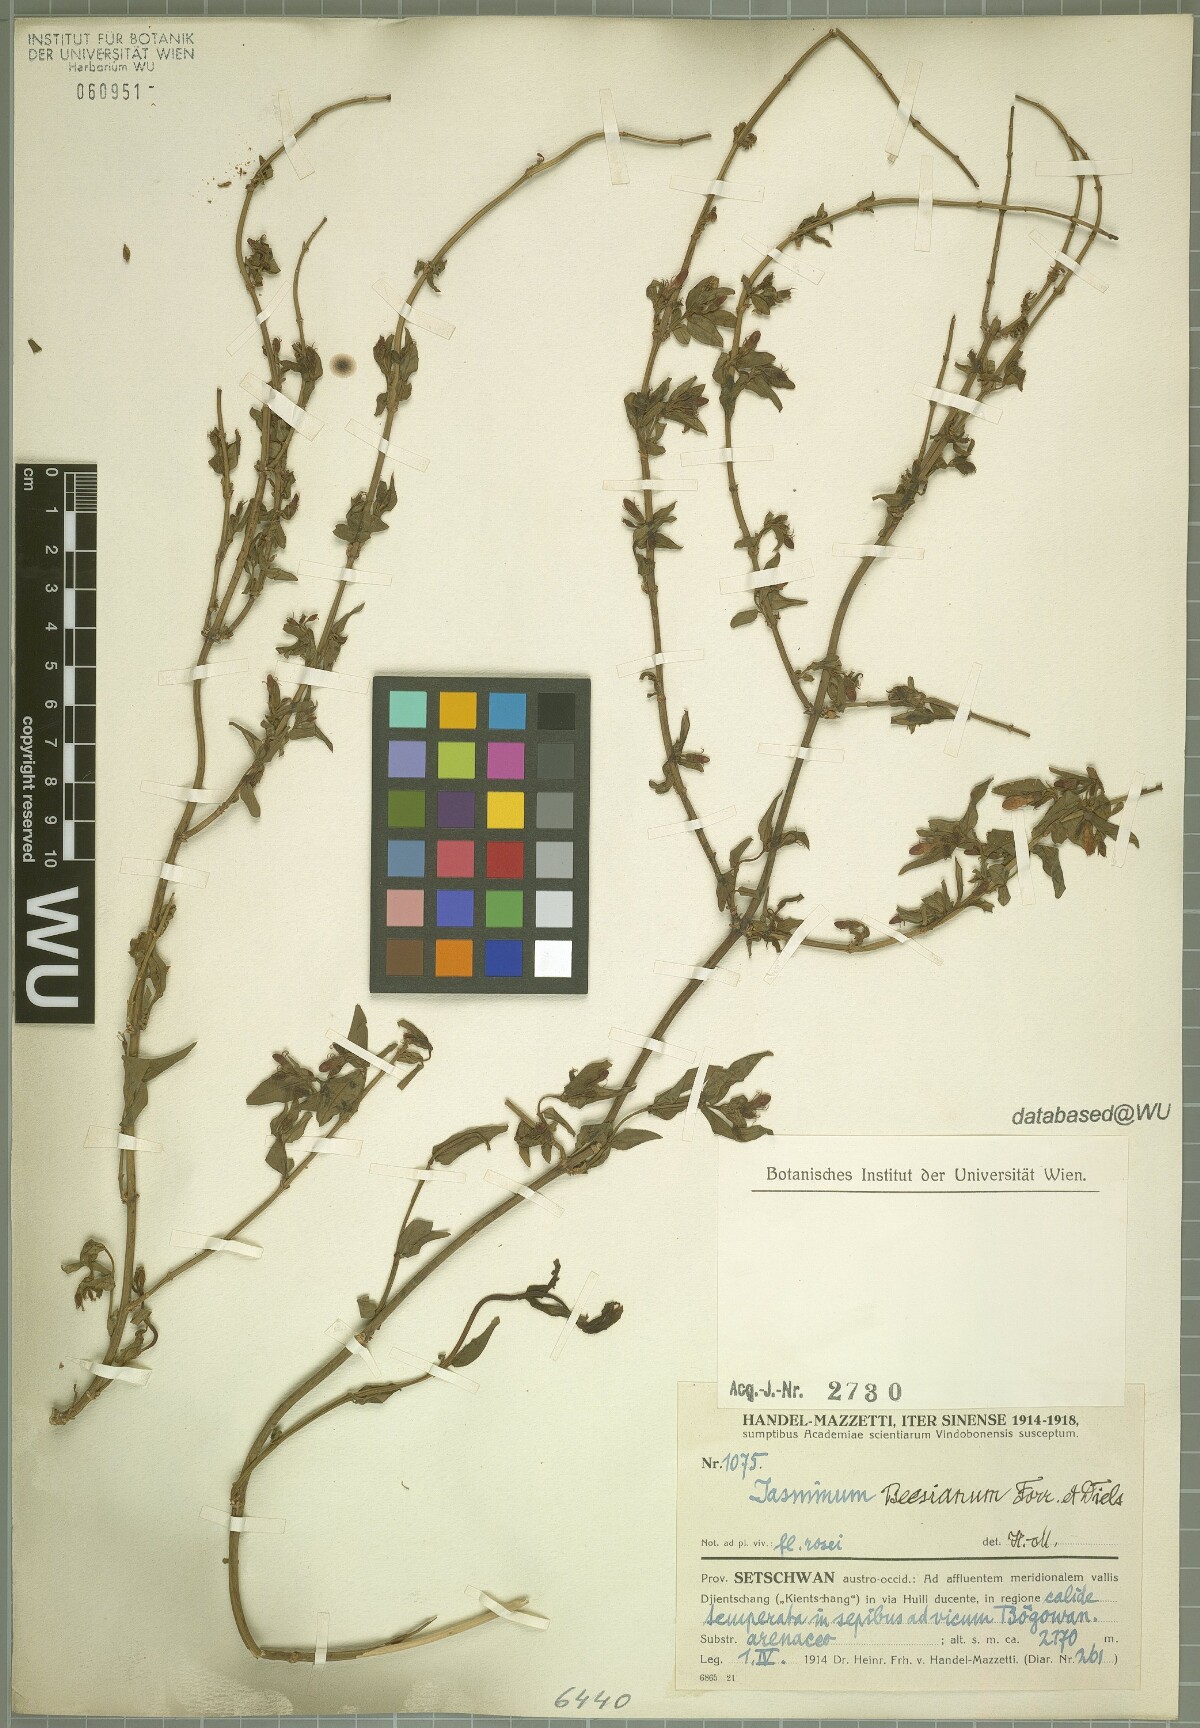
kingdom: Plantae
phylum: Tracheophyta
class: Magnoliopsida
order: Lamiales
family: Oleaceae
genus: Jasminum
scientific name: Jasminum beesianum
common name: Red jasmine
